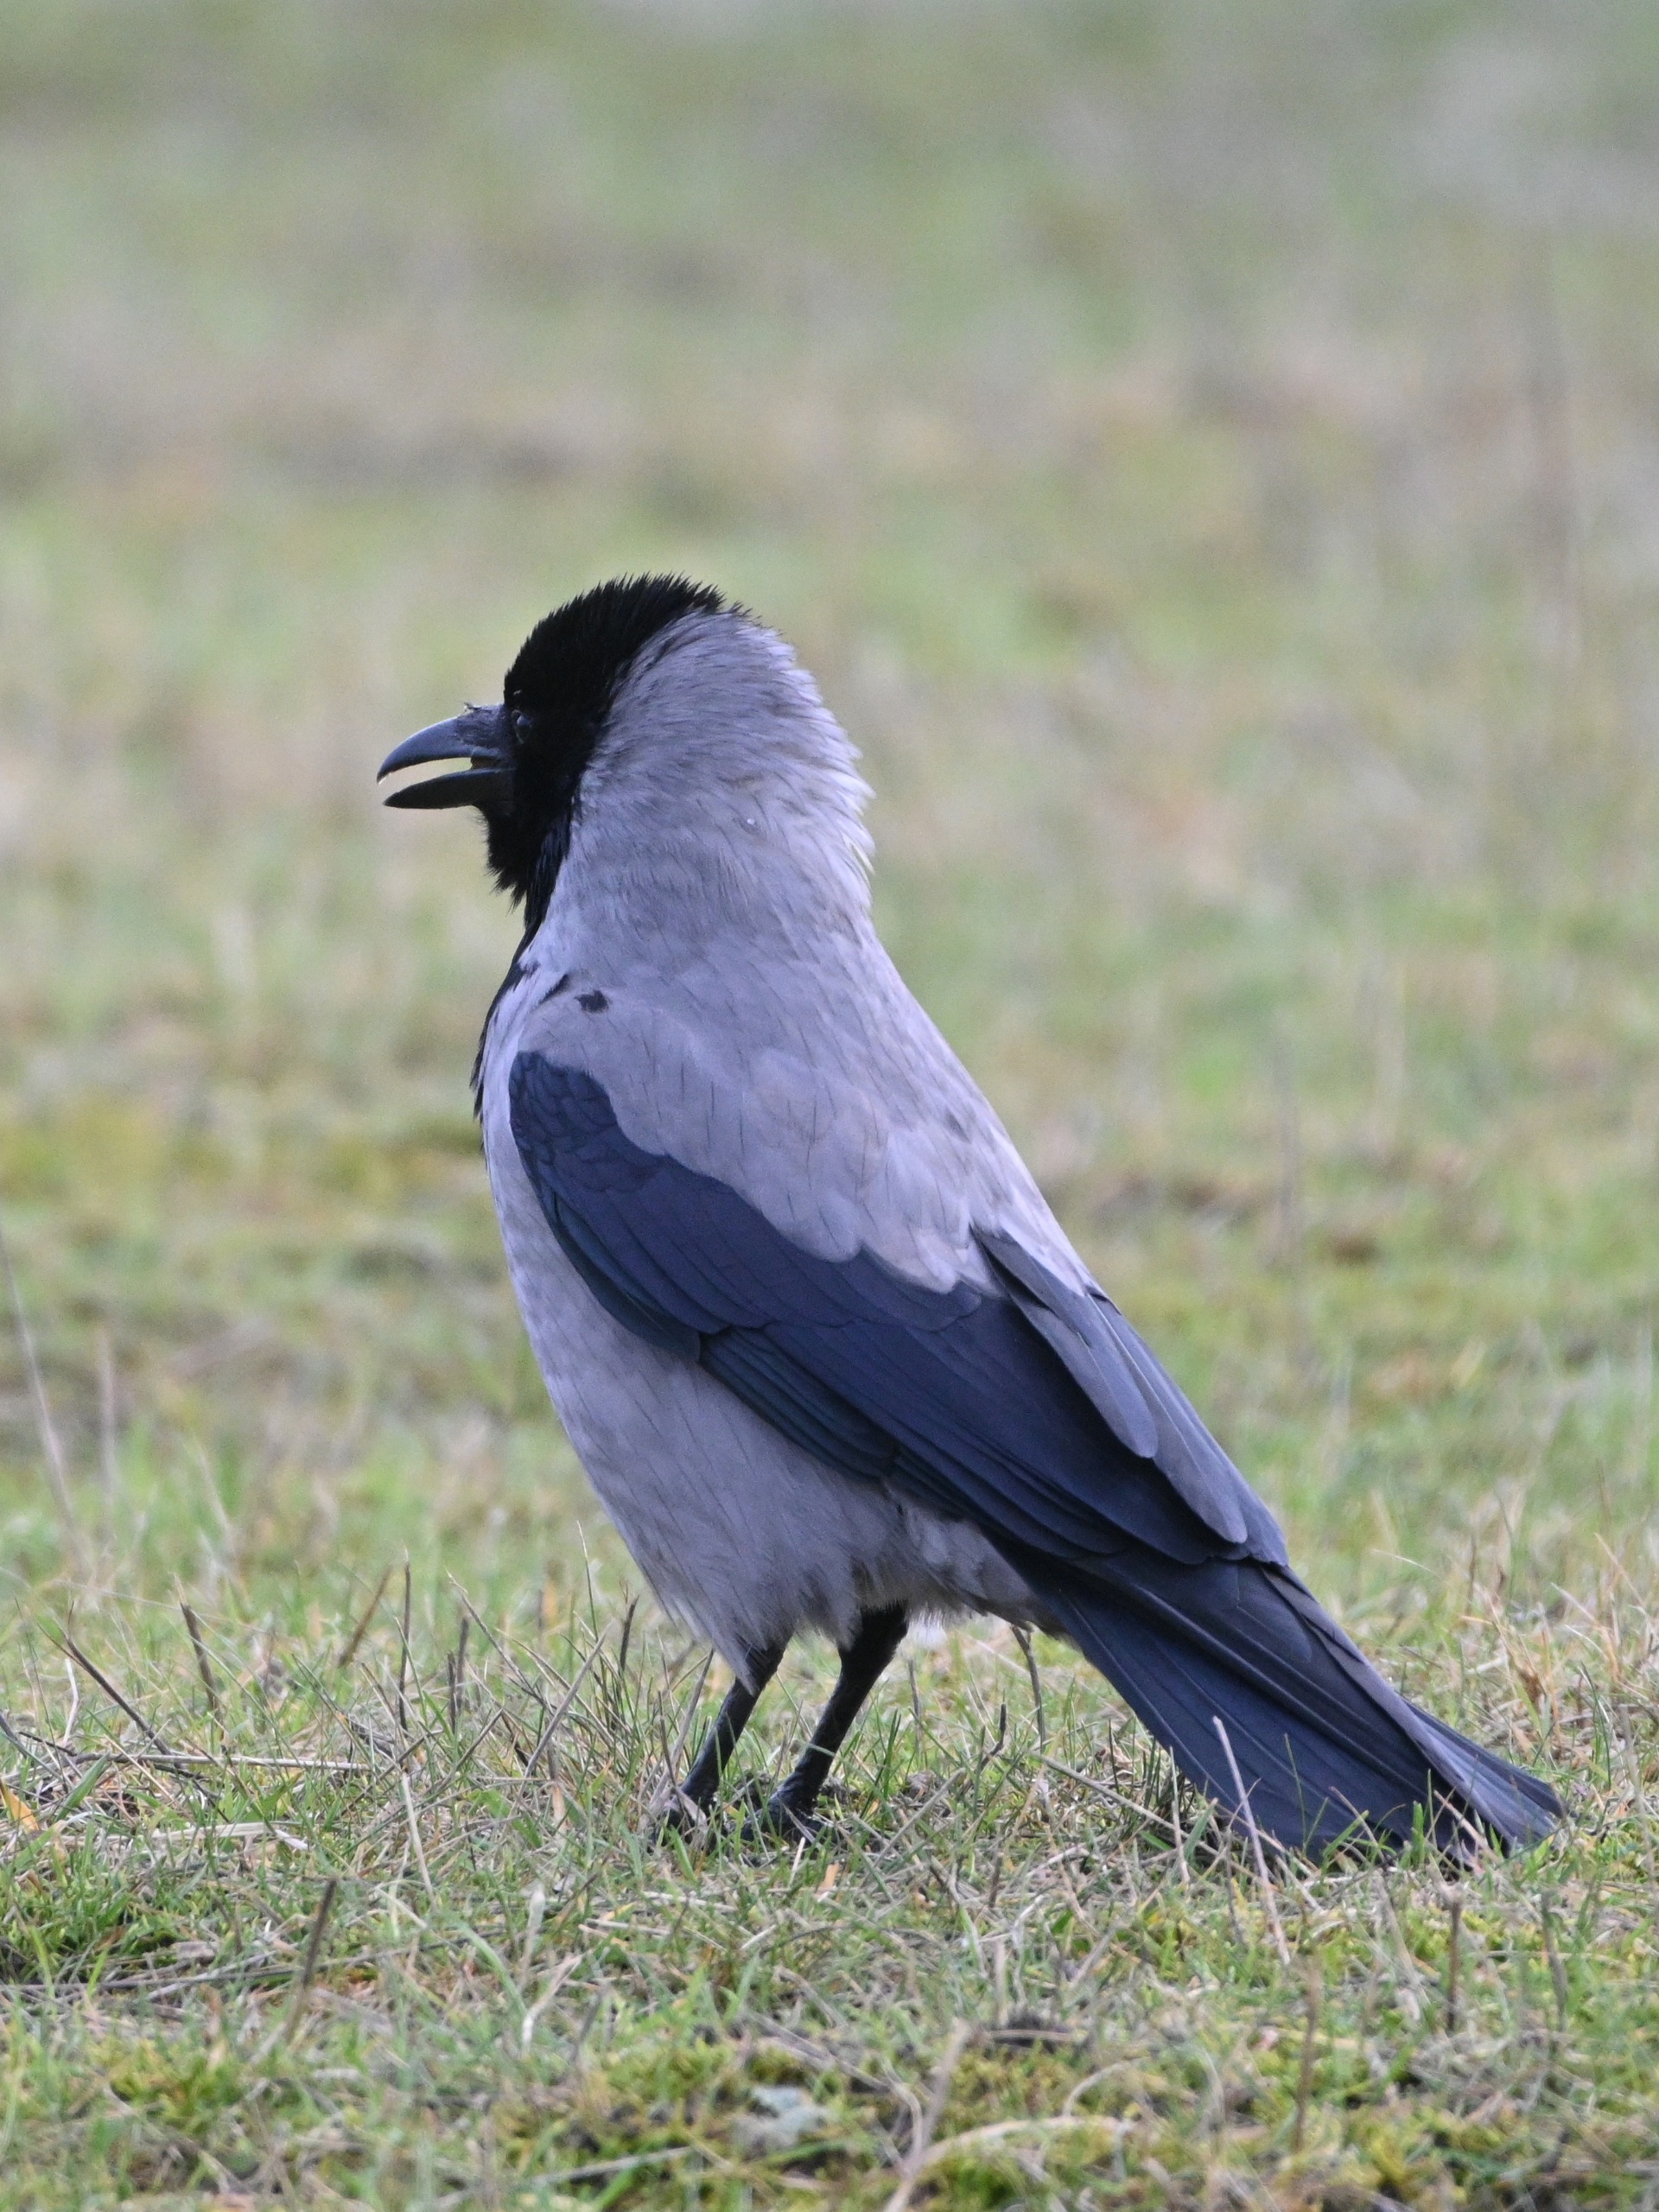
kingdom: Animalia
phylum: Chordata
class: Aves
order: Passeriformes
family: Corvidae
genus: Corvus
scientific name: Corvus cornix
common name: Gråkrage
